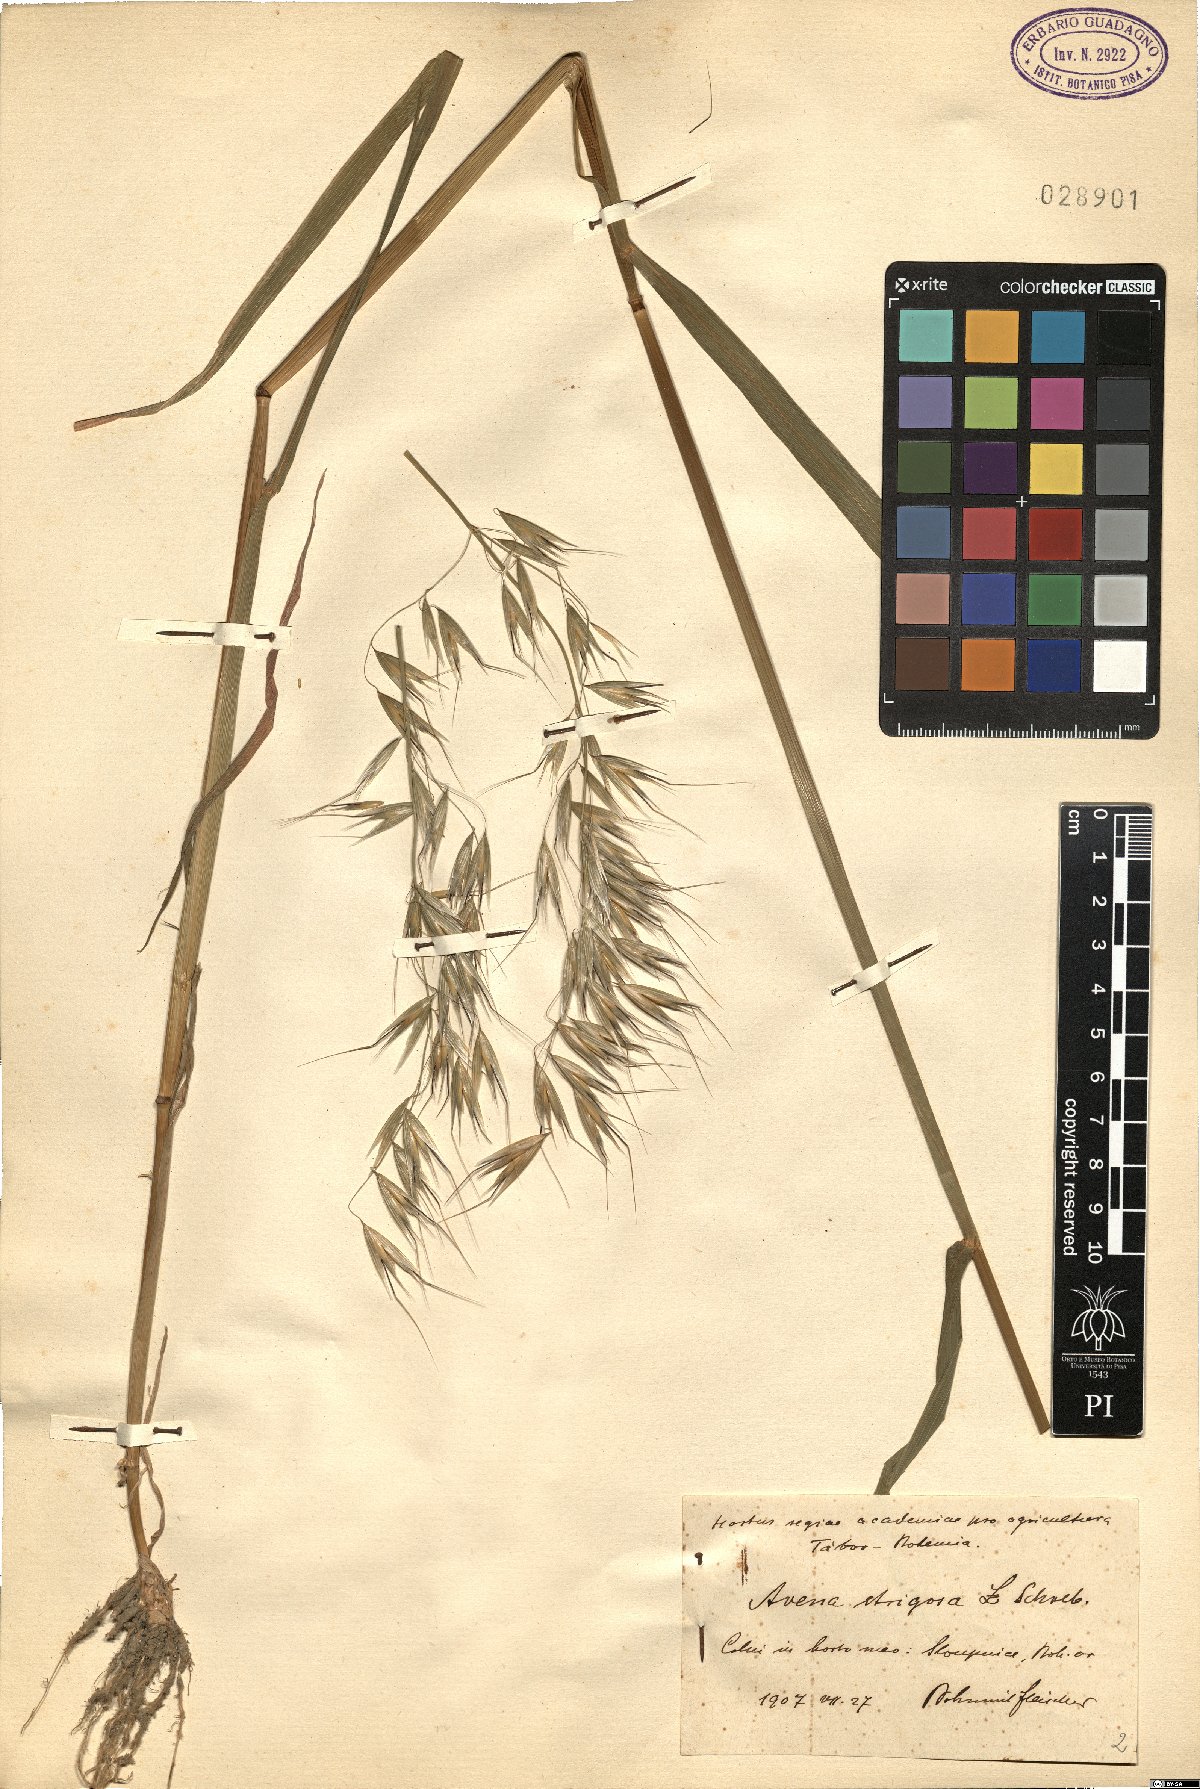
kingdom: Plantae
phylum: Tracheophyta
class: Liliopsida
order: Poales
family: Poaceae
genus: Avena
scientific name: Avena strigosa
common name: Bristle oat
